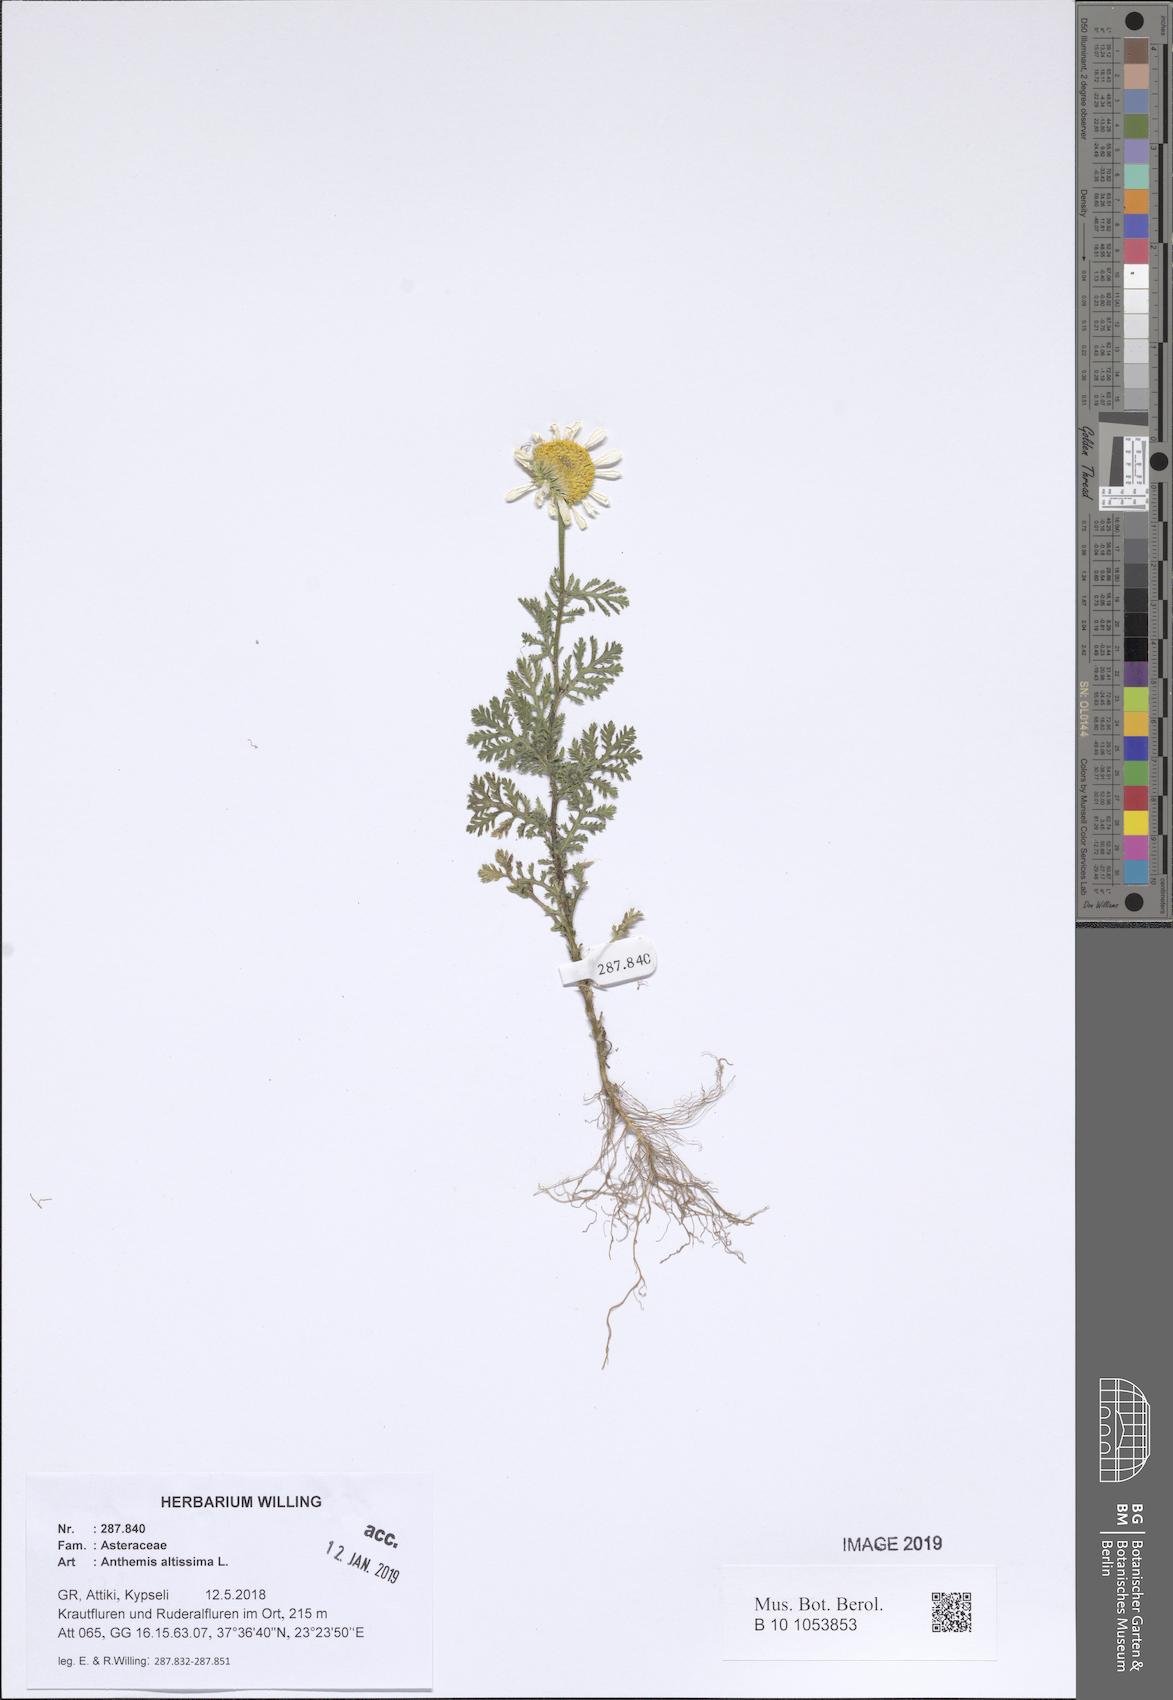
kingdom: Plantae
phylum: Tracheophyta
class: Magnoliopsida
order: Asterales
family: Asteraceae
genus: Cota
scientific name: Cota altissima
